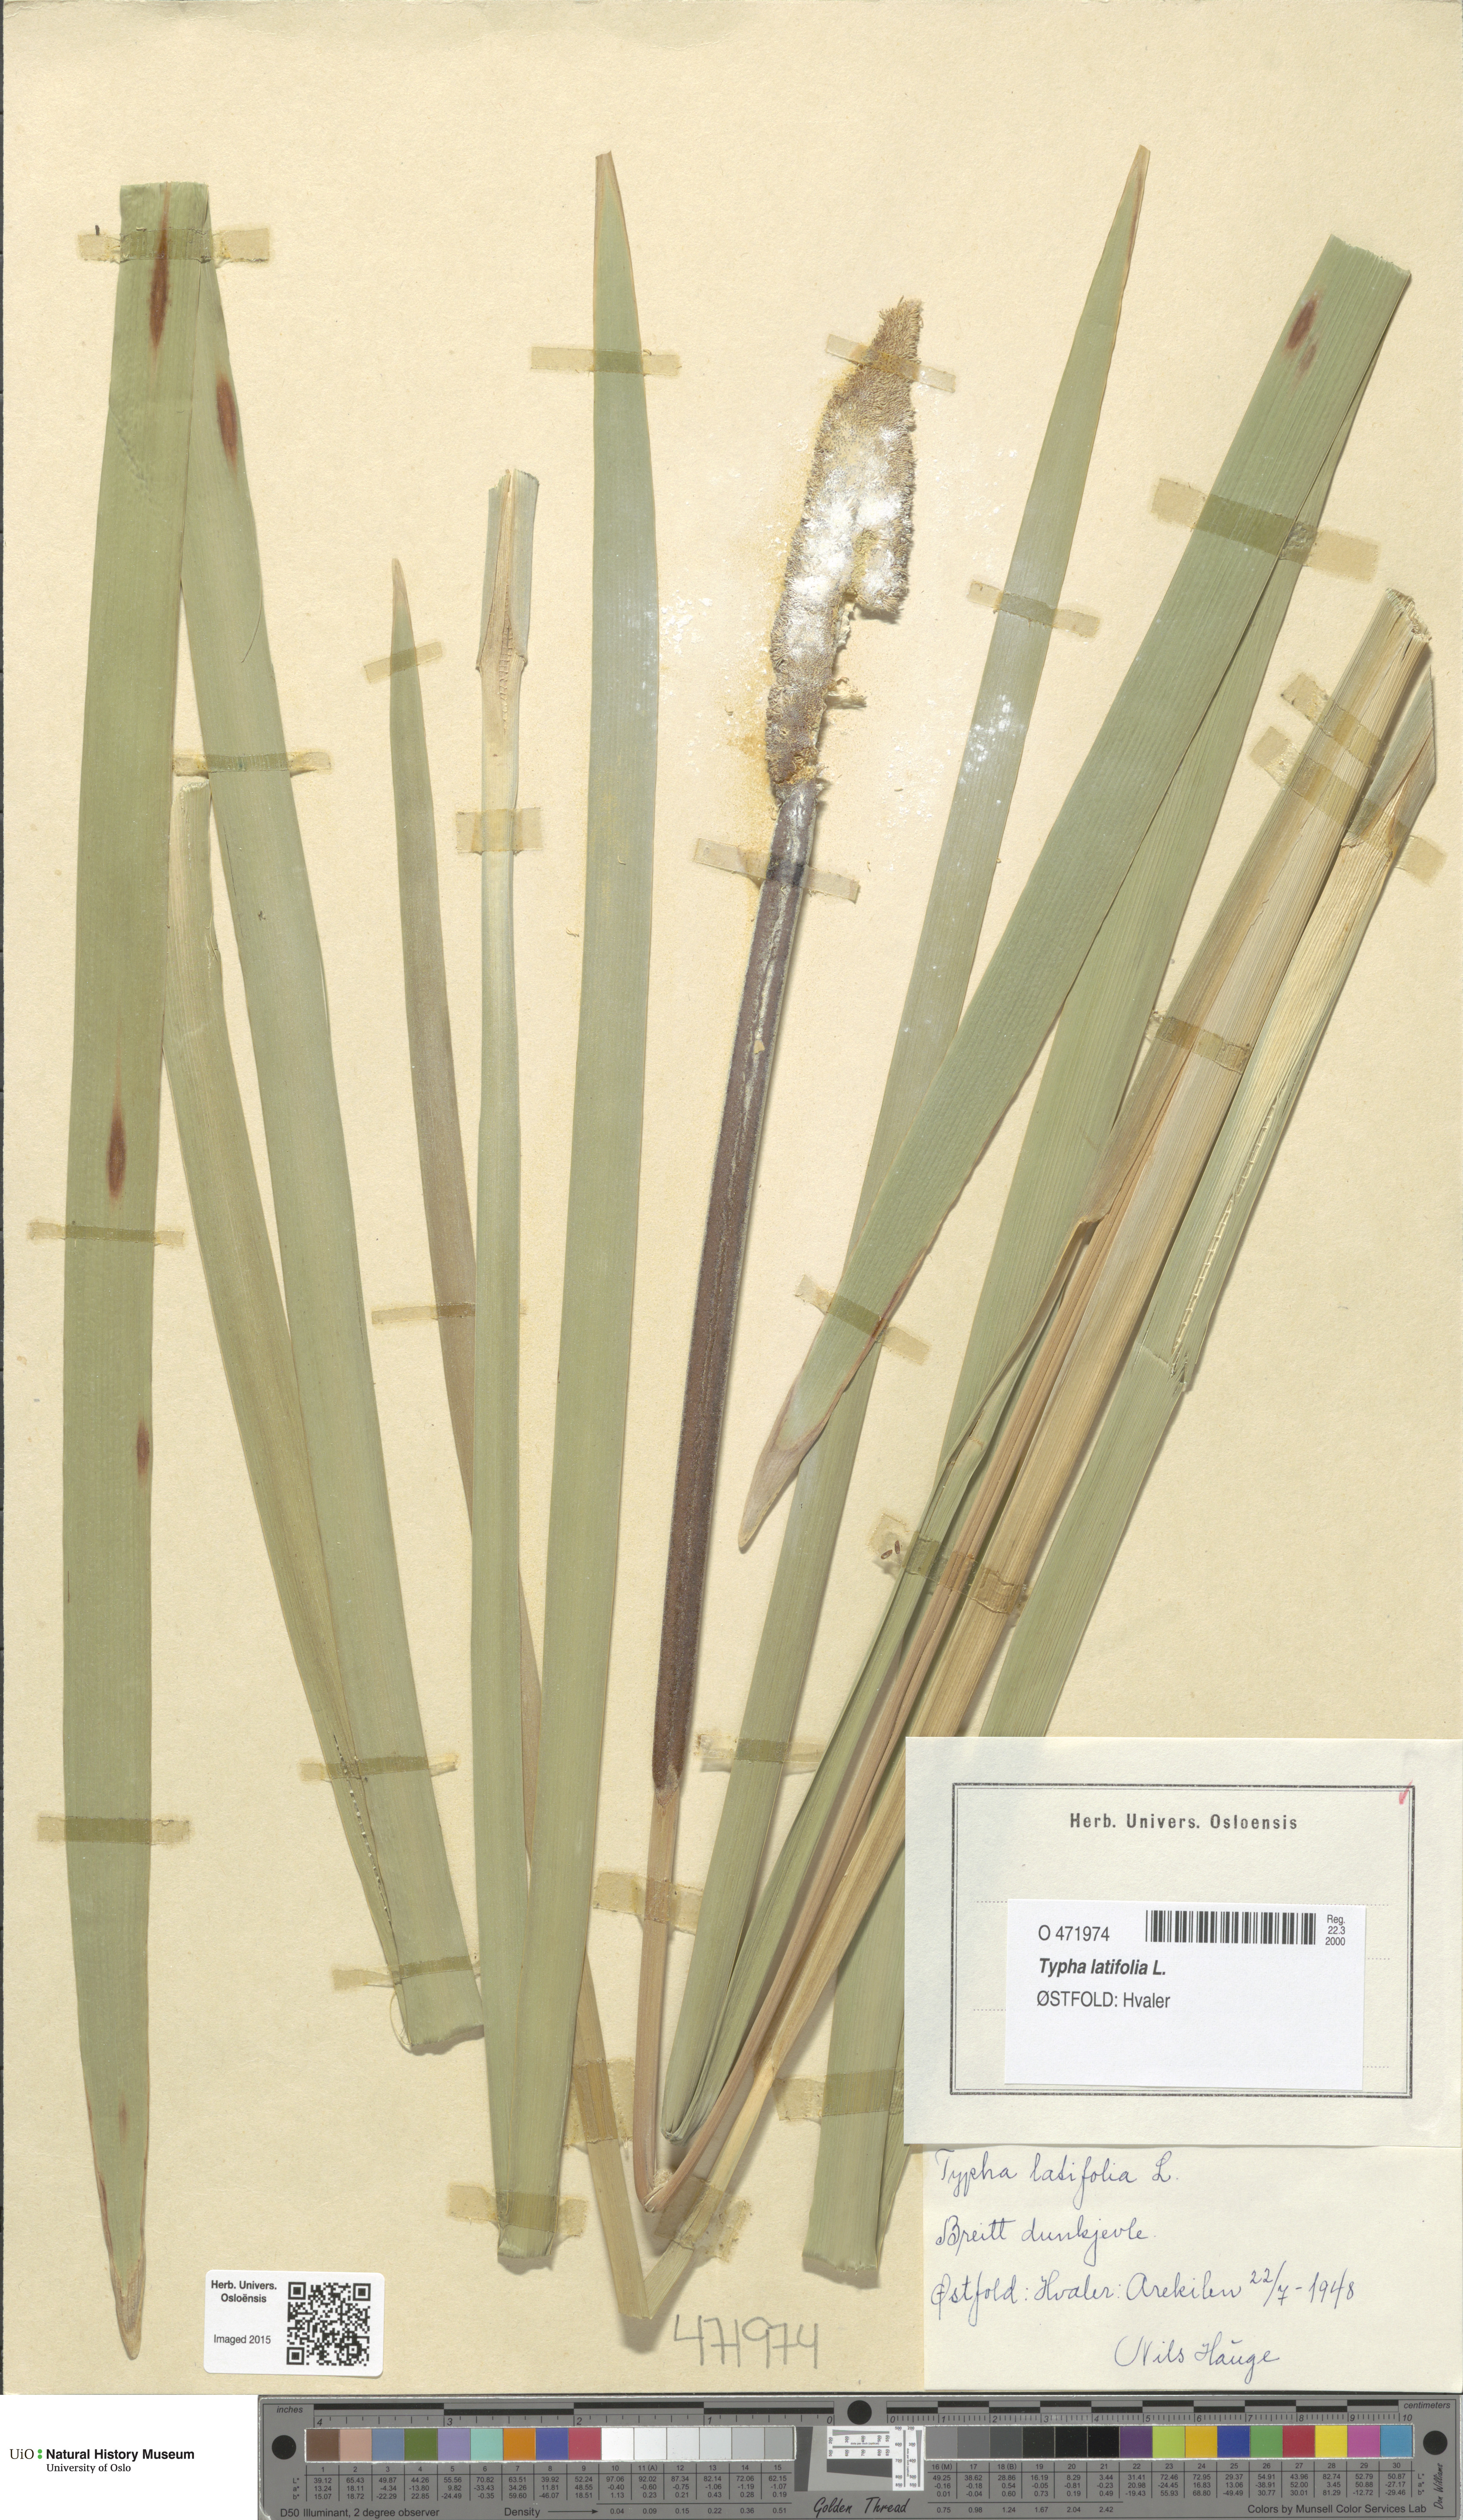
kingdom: Plantae
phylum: Tracheophyta
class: Liliopsida
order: Poales
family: Typhaceae
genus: Typha
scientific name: Typha latifolia
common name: Broadleaf cattail
